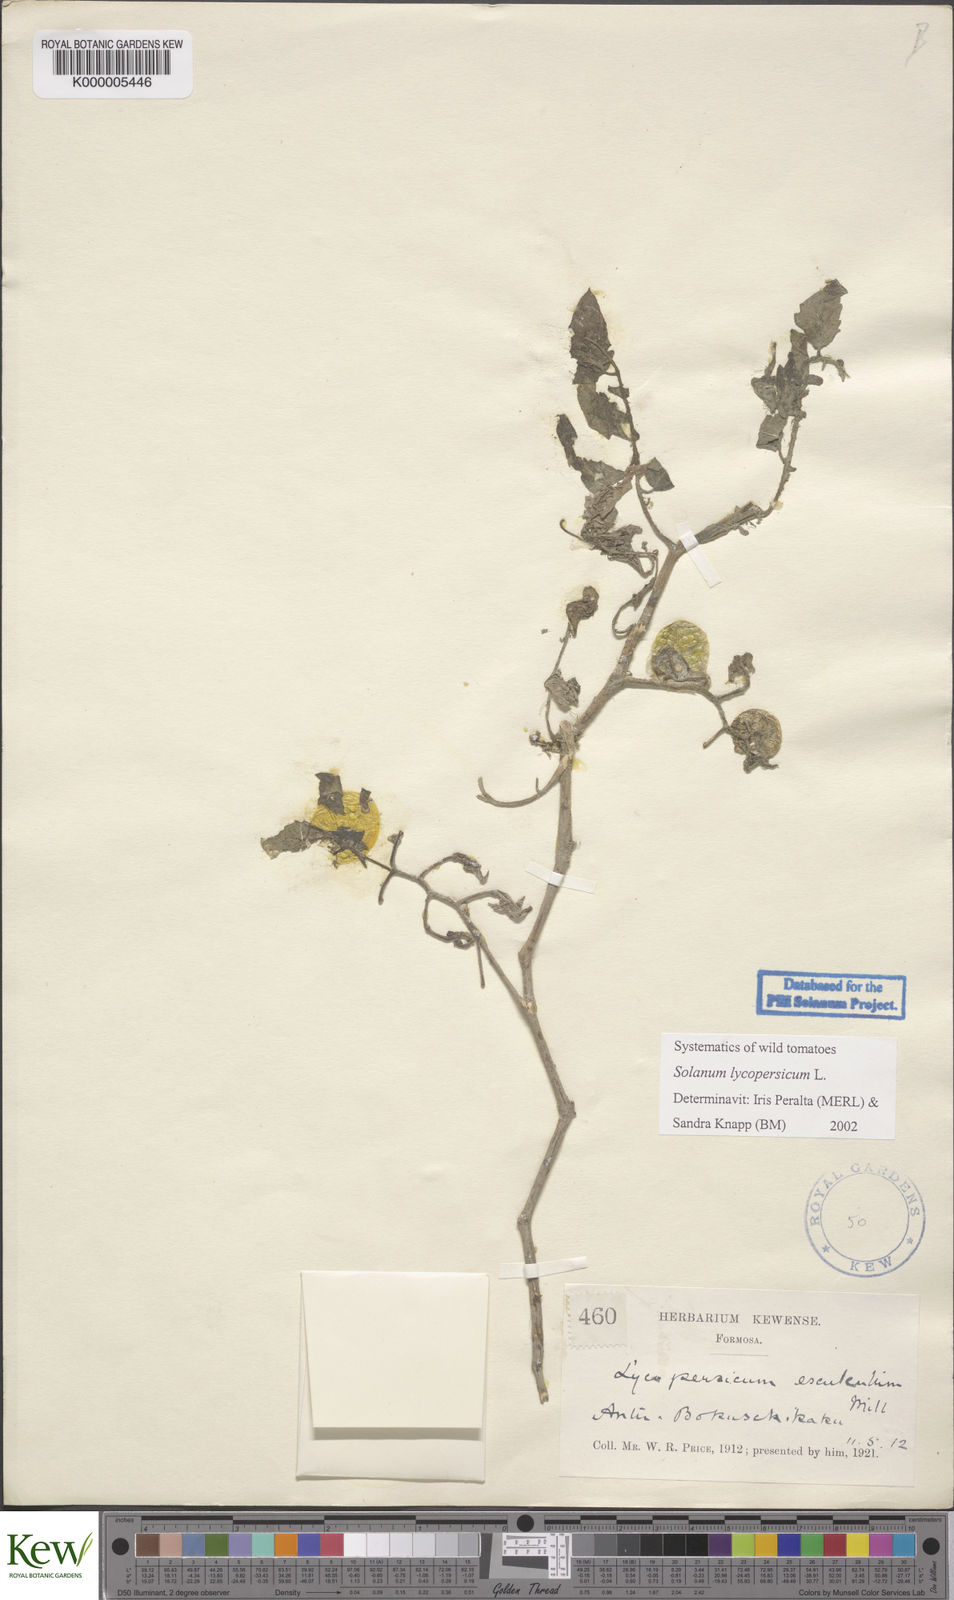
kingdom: Plantae
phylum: Tracheophyta
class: Magnoliopsida
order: Solanales
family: Solanaceae
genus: Solanum
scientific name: Solanum lycopersicum
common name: Garden tomato
